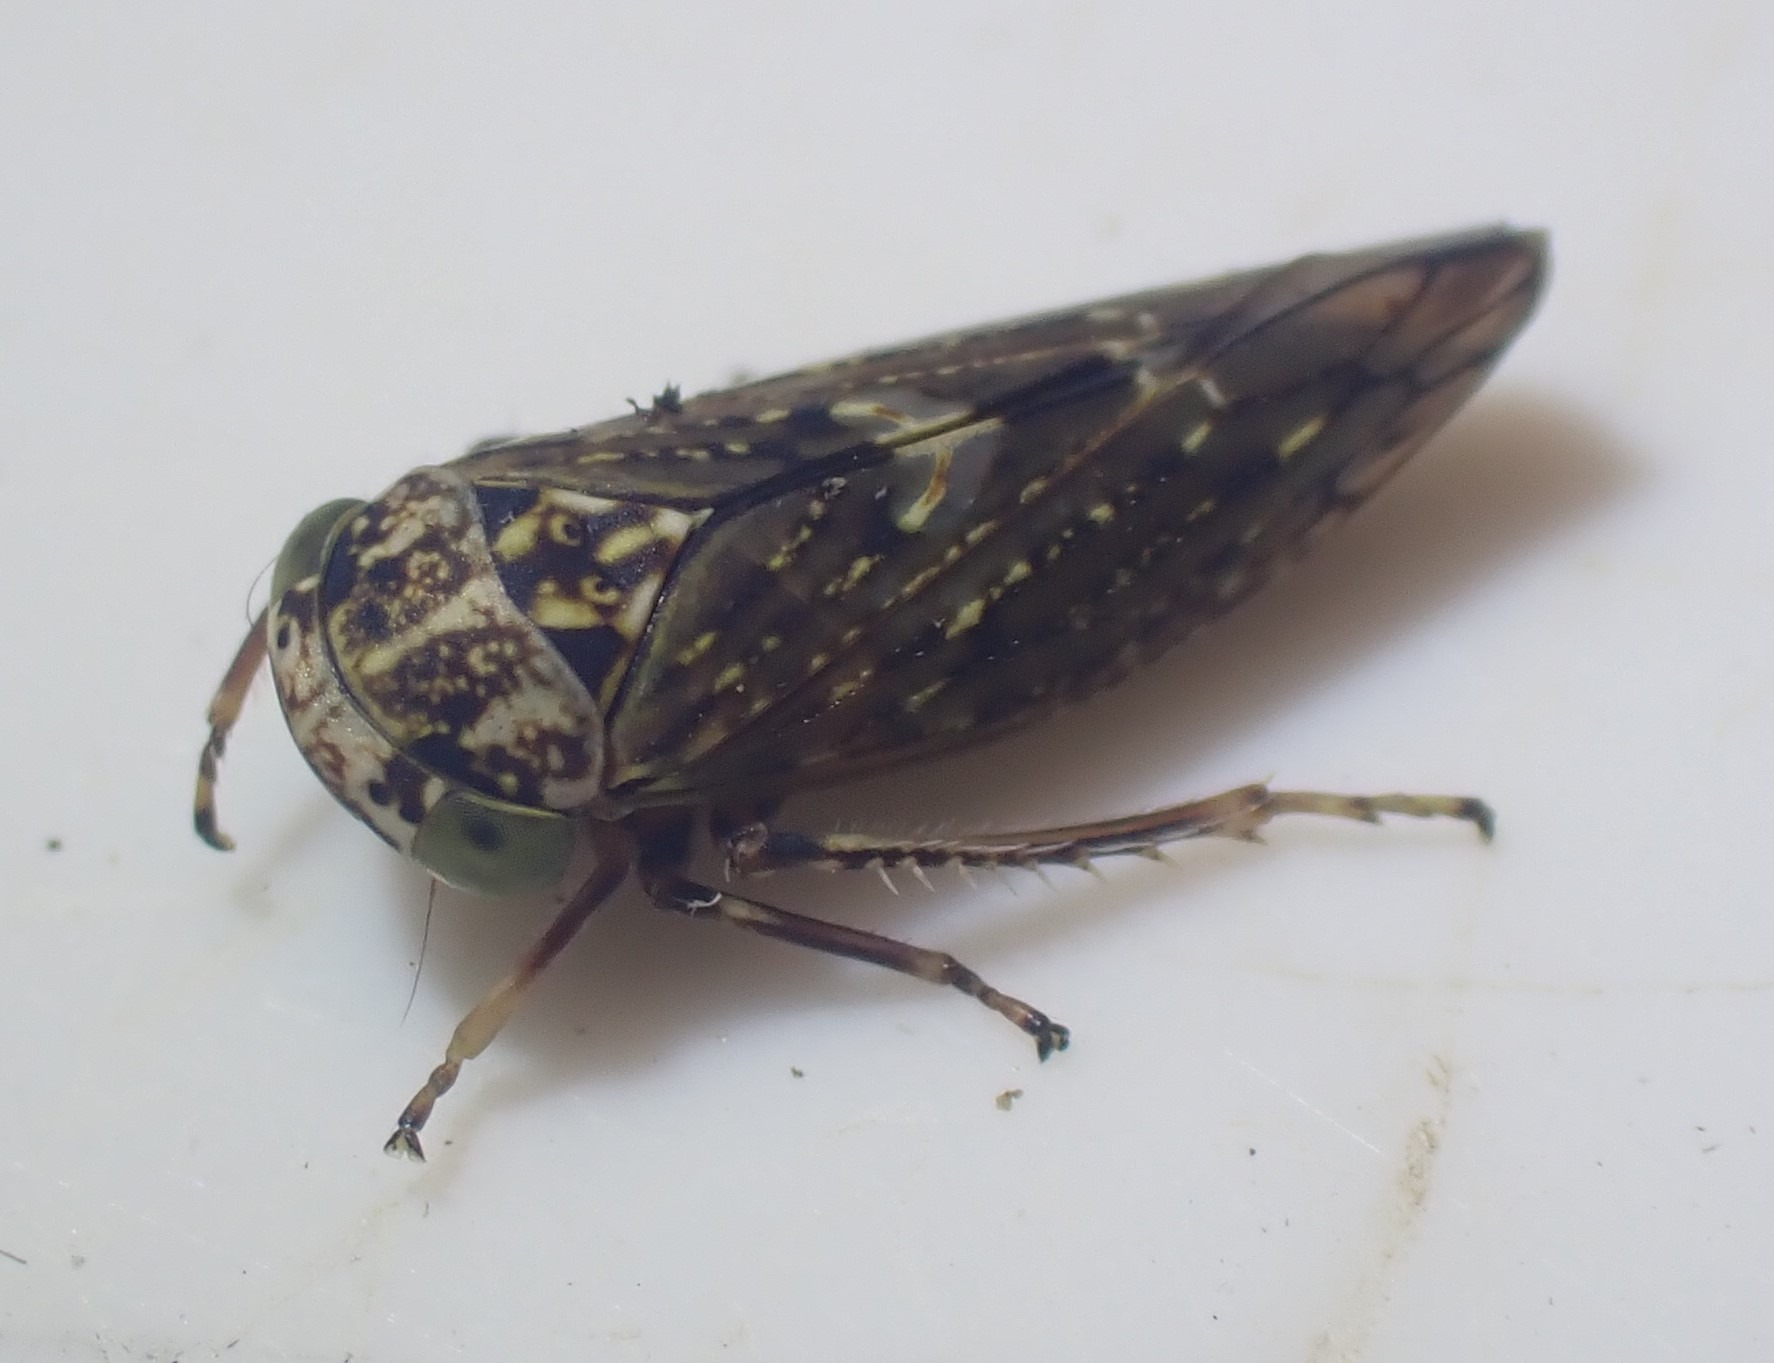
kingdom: Animalia
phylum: Arthropoda
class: Insecta
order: Hemiptera
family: Cicadellidae
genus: Acericerus
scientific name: Acericerus heydenii
